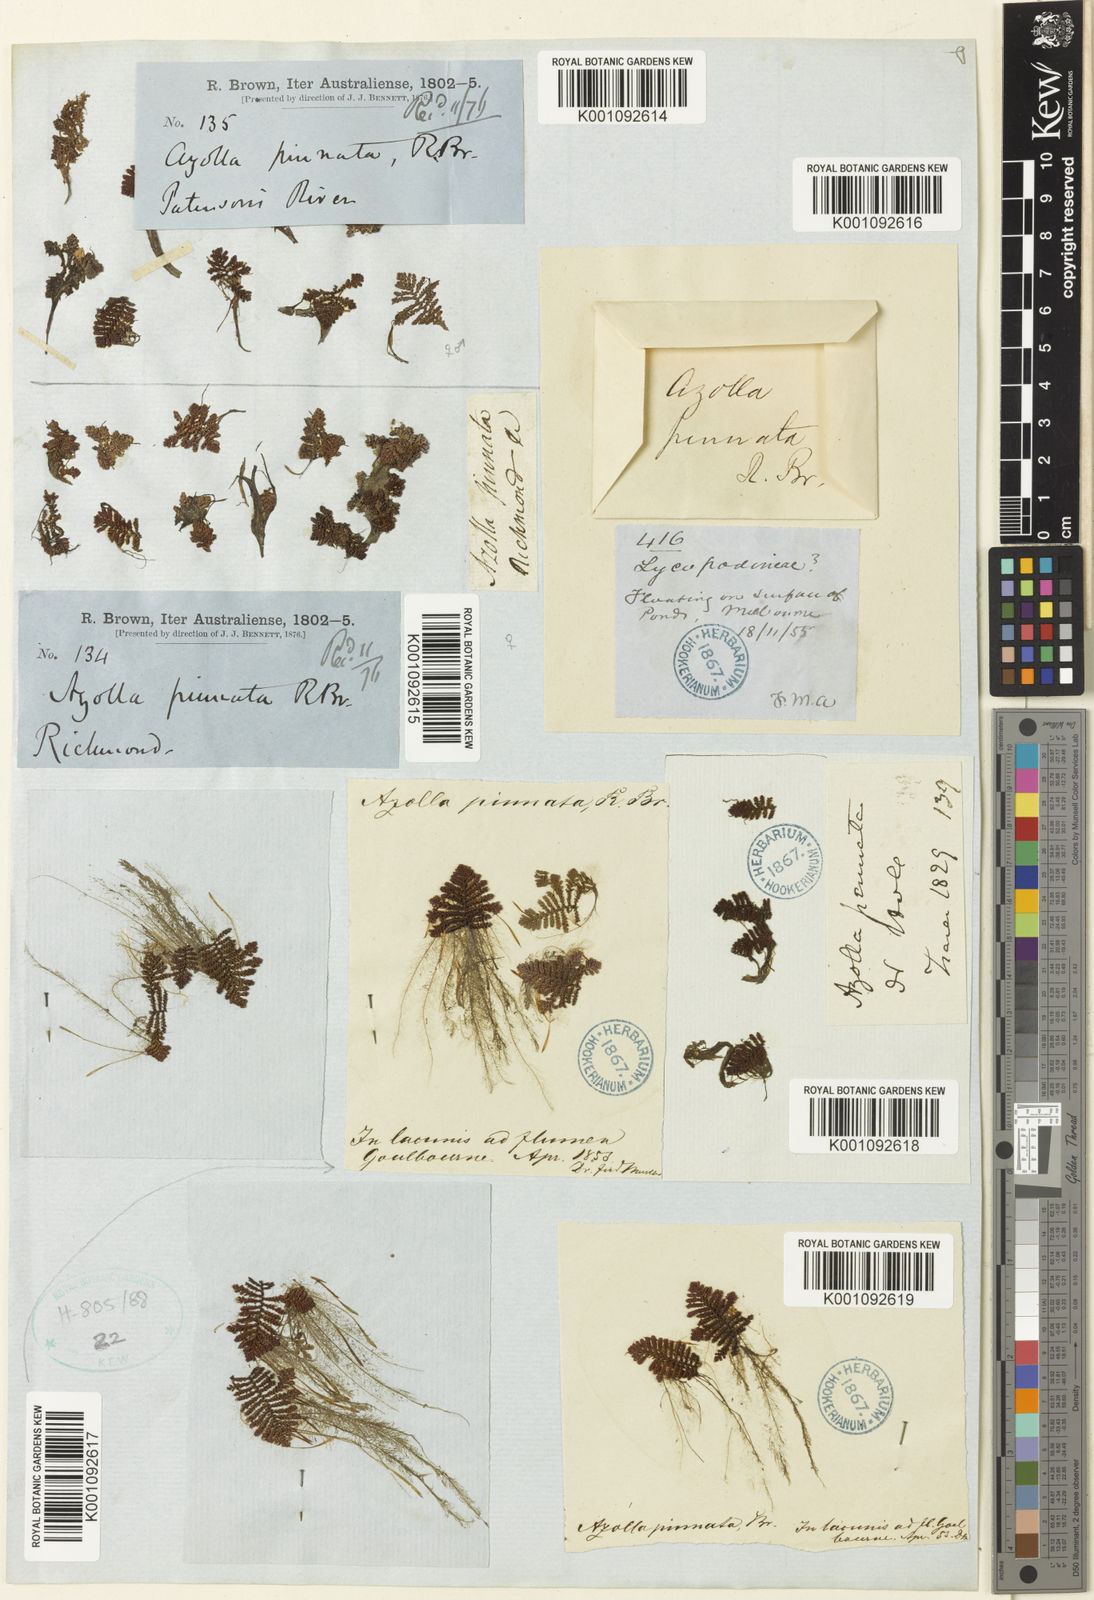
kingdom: Plantae
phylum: Tracheophyta
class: Polypodiopsida
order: Salviniales
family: Salviniaceae
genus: Azolla
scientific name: Azolla pinnata
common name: Ferny azolla
